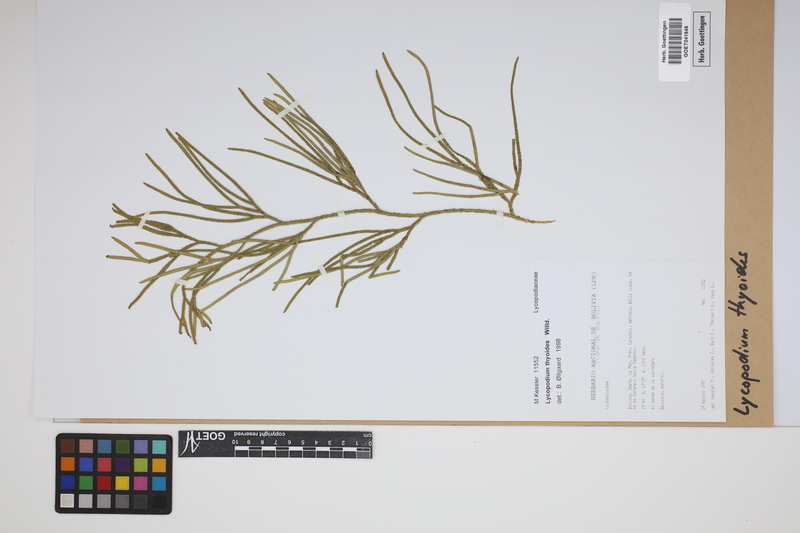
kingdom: Plantae
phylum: Tracheophyta
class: Lycopodiopsida
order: Lycopodiales
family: Lycopodiaceae
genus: Diphasiastrum
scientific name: Diphasiastrum thyoides
